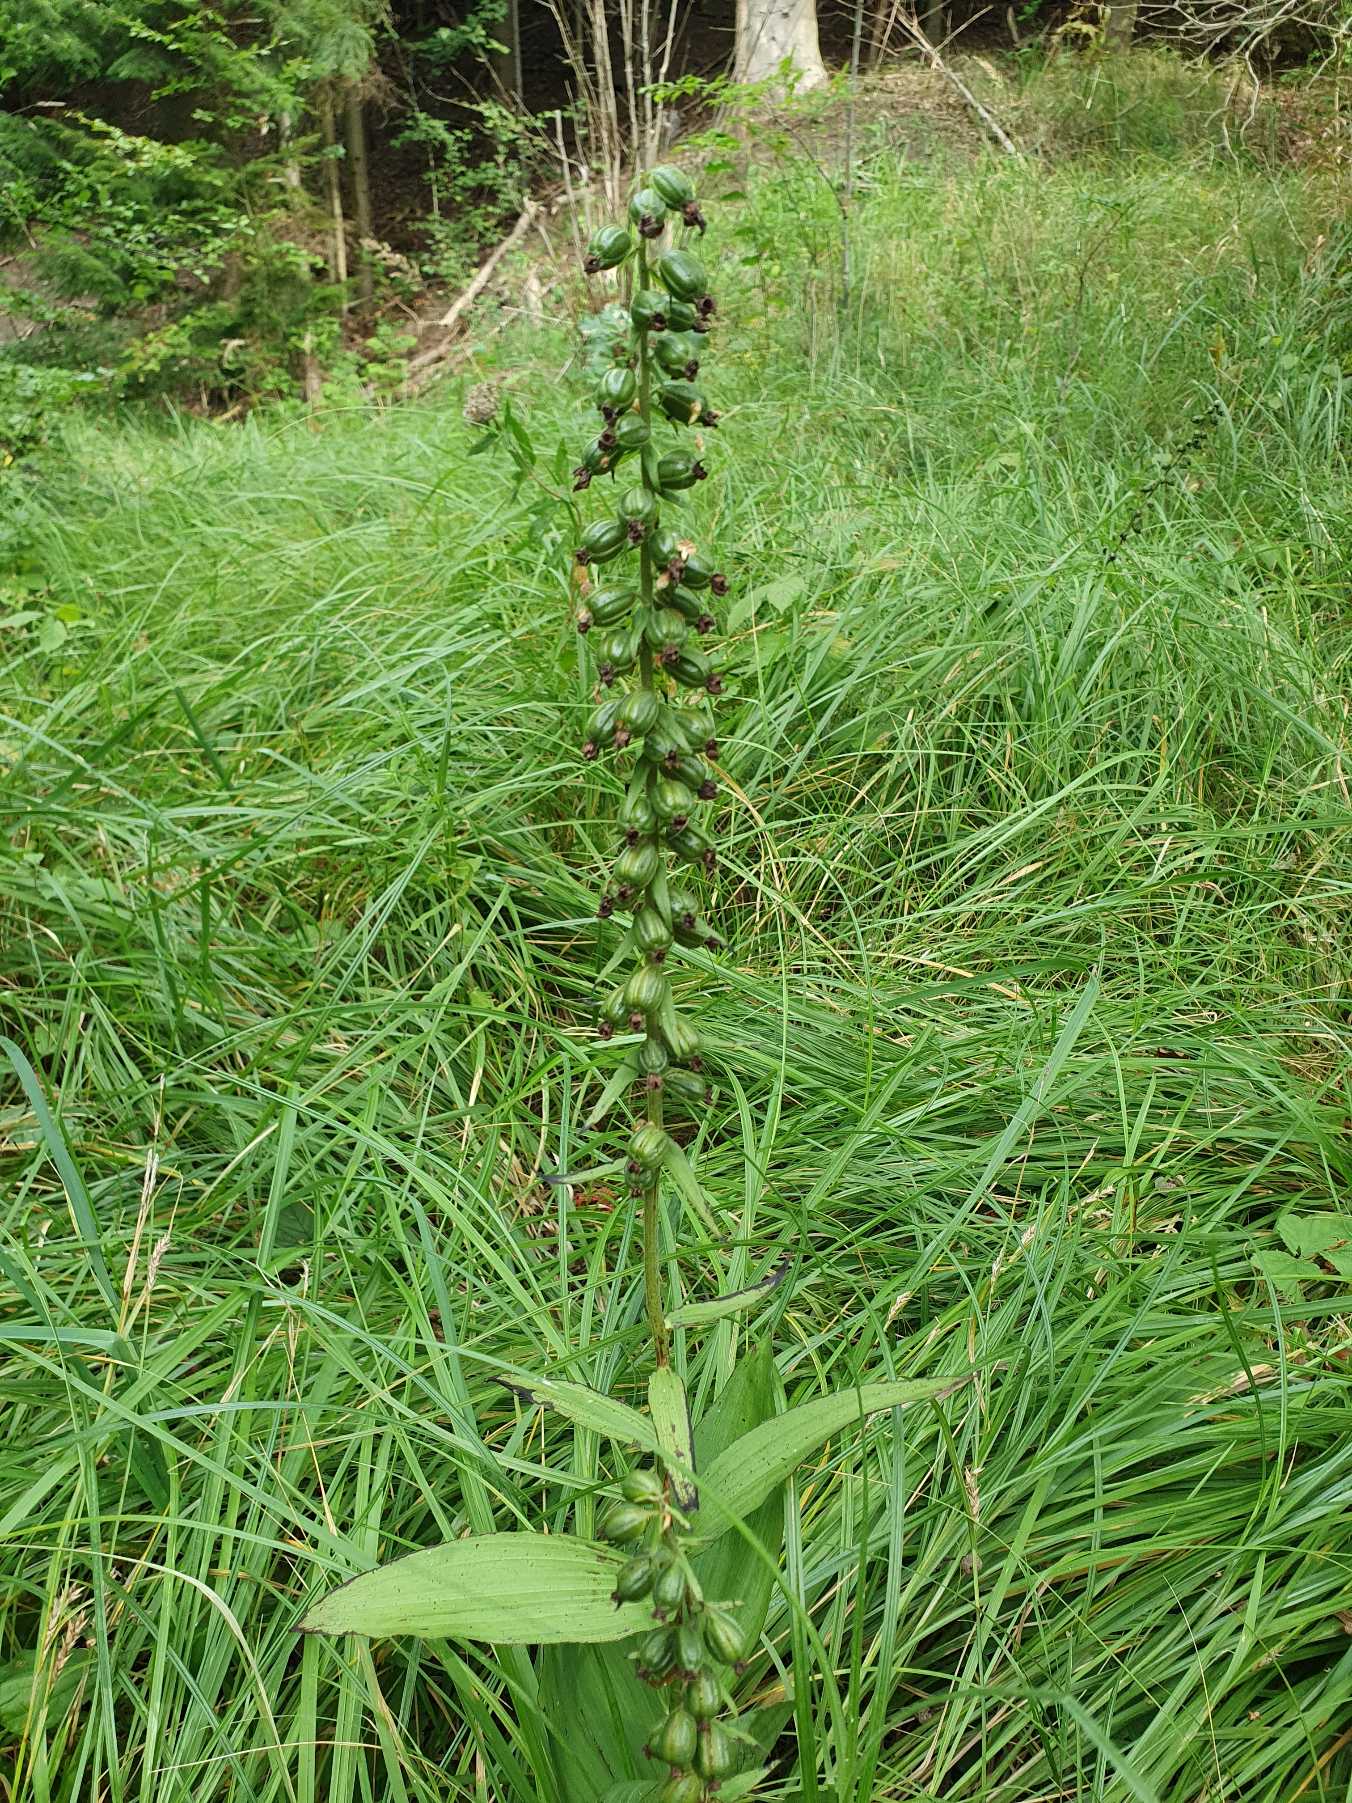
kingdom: Plantae
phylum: Tracheophyta
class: Liliopsida
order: Asparagales
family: Orchidaceae
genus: Epipactis
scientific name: Epipactis helleborine
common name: Skov-hullæbe
